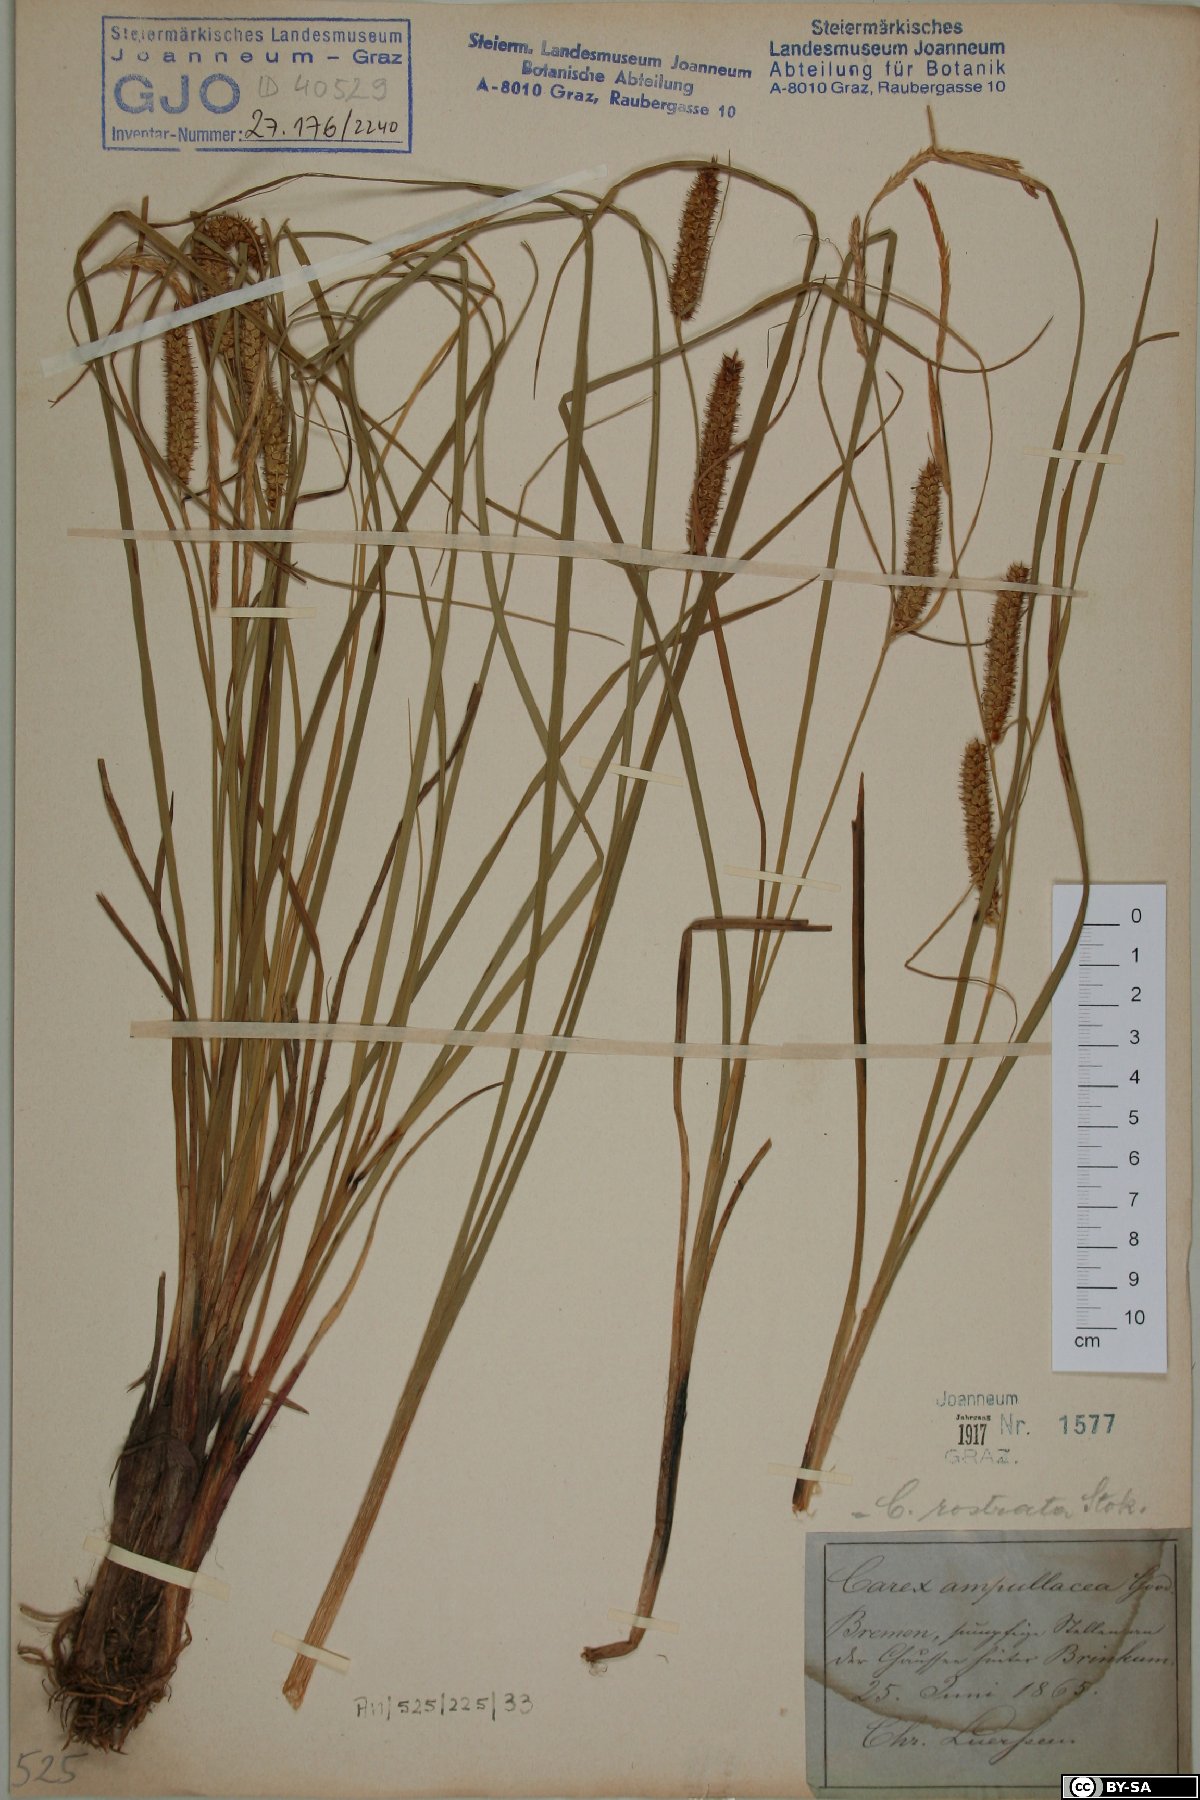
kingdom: Plantae
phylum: Tracheophyta
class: Liliopsida
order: Poales
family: Cyperaceae
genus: Carex
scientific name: Carex rostrata
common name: Bottle sedge
